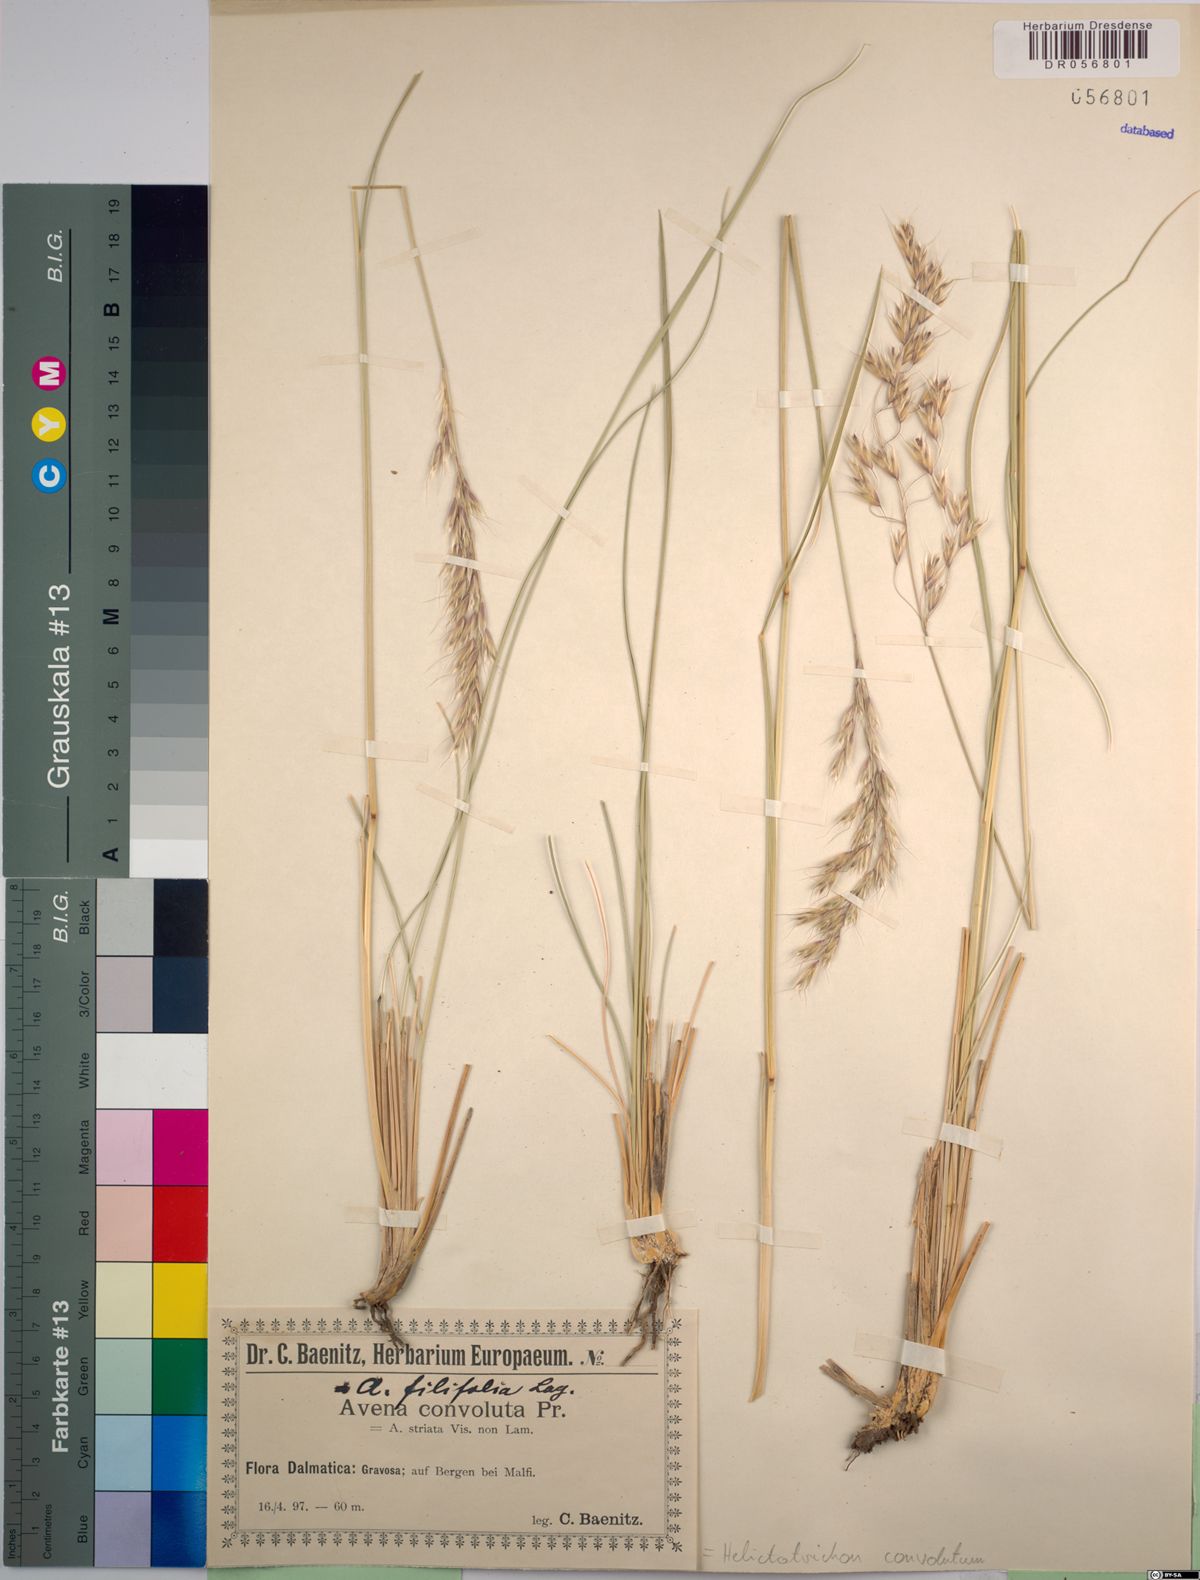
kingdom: Plantae
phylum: Tracheophyta
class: Liliopsida
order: Poales
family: Poaceae
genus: Helictotrichon
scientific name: Helictotrichon convolutum
